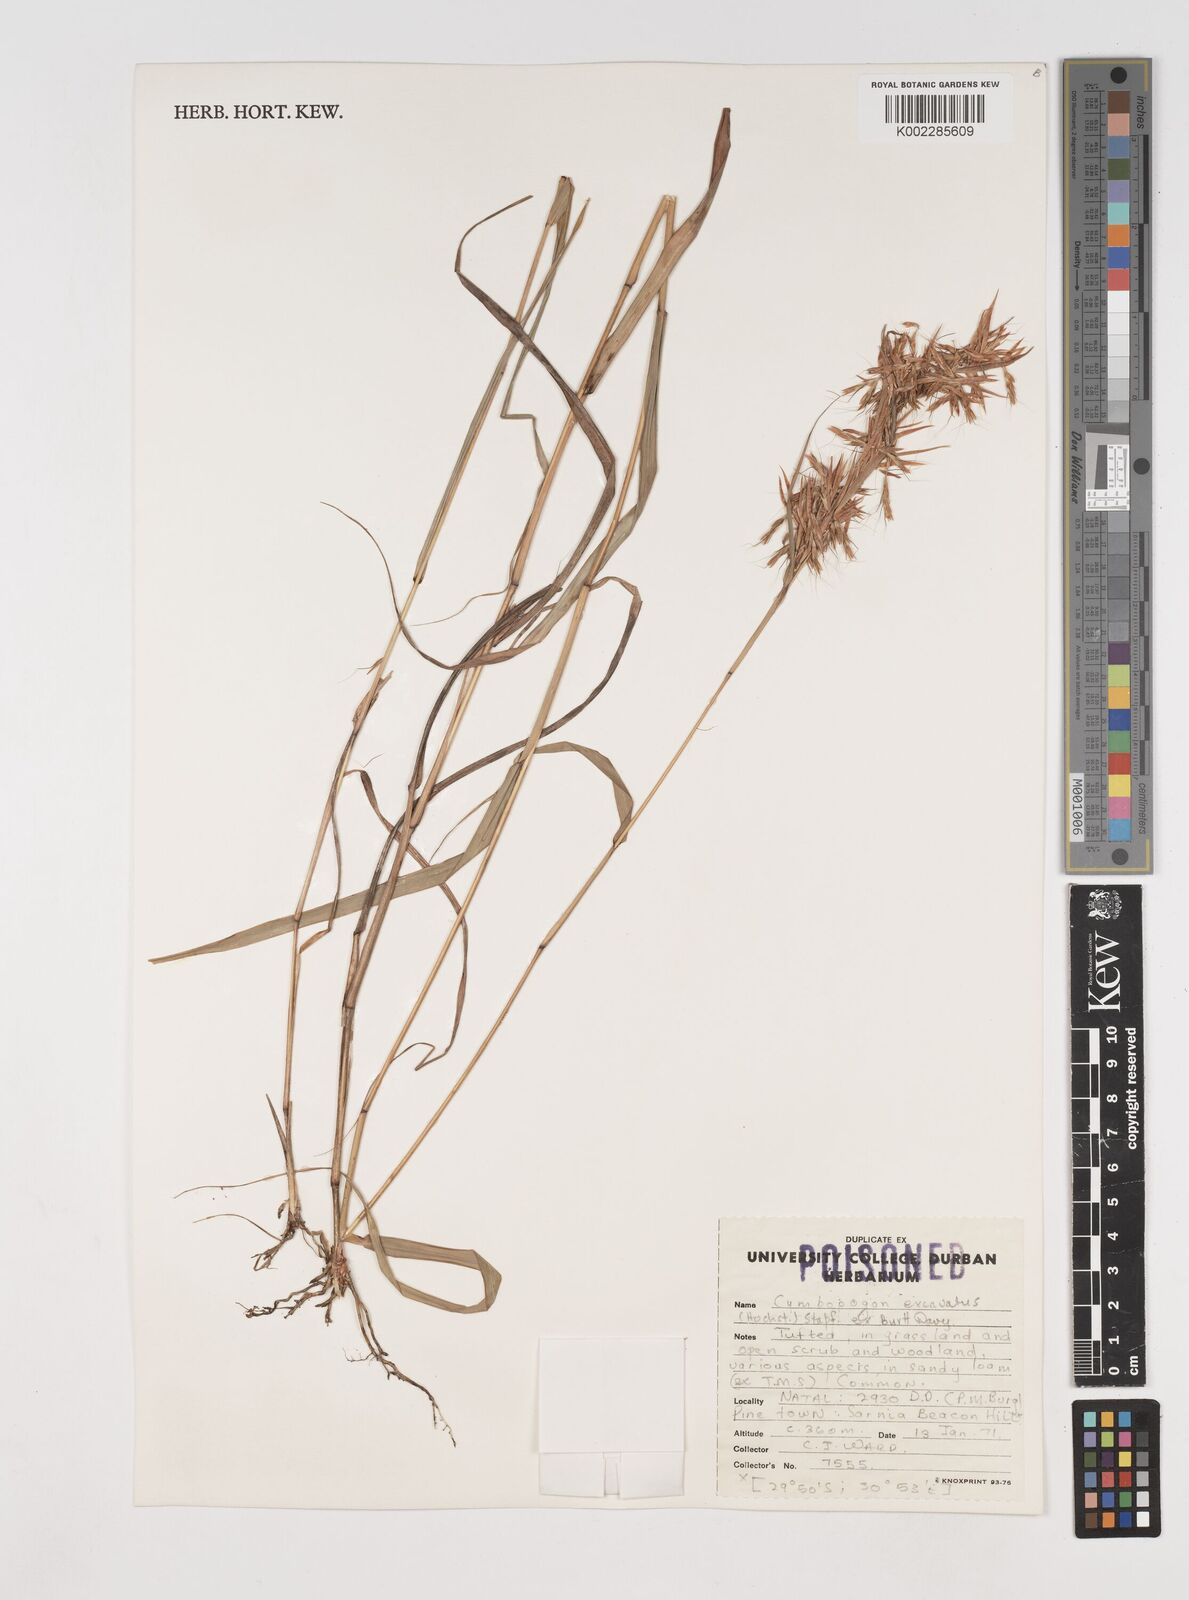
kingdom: Plantae
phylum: Tracheophyta
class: Liliopsida
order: Poales
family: Poaceae
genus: Cymbopogon
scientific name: Cymbopogon caesius
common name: Kachi grass
